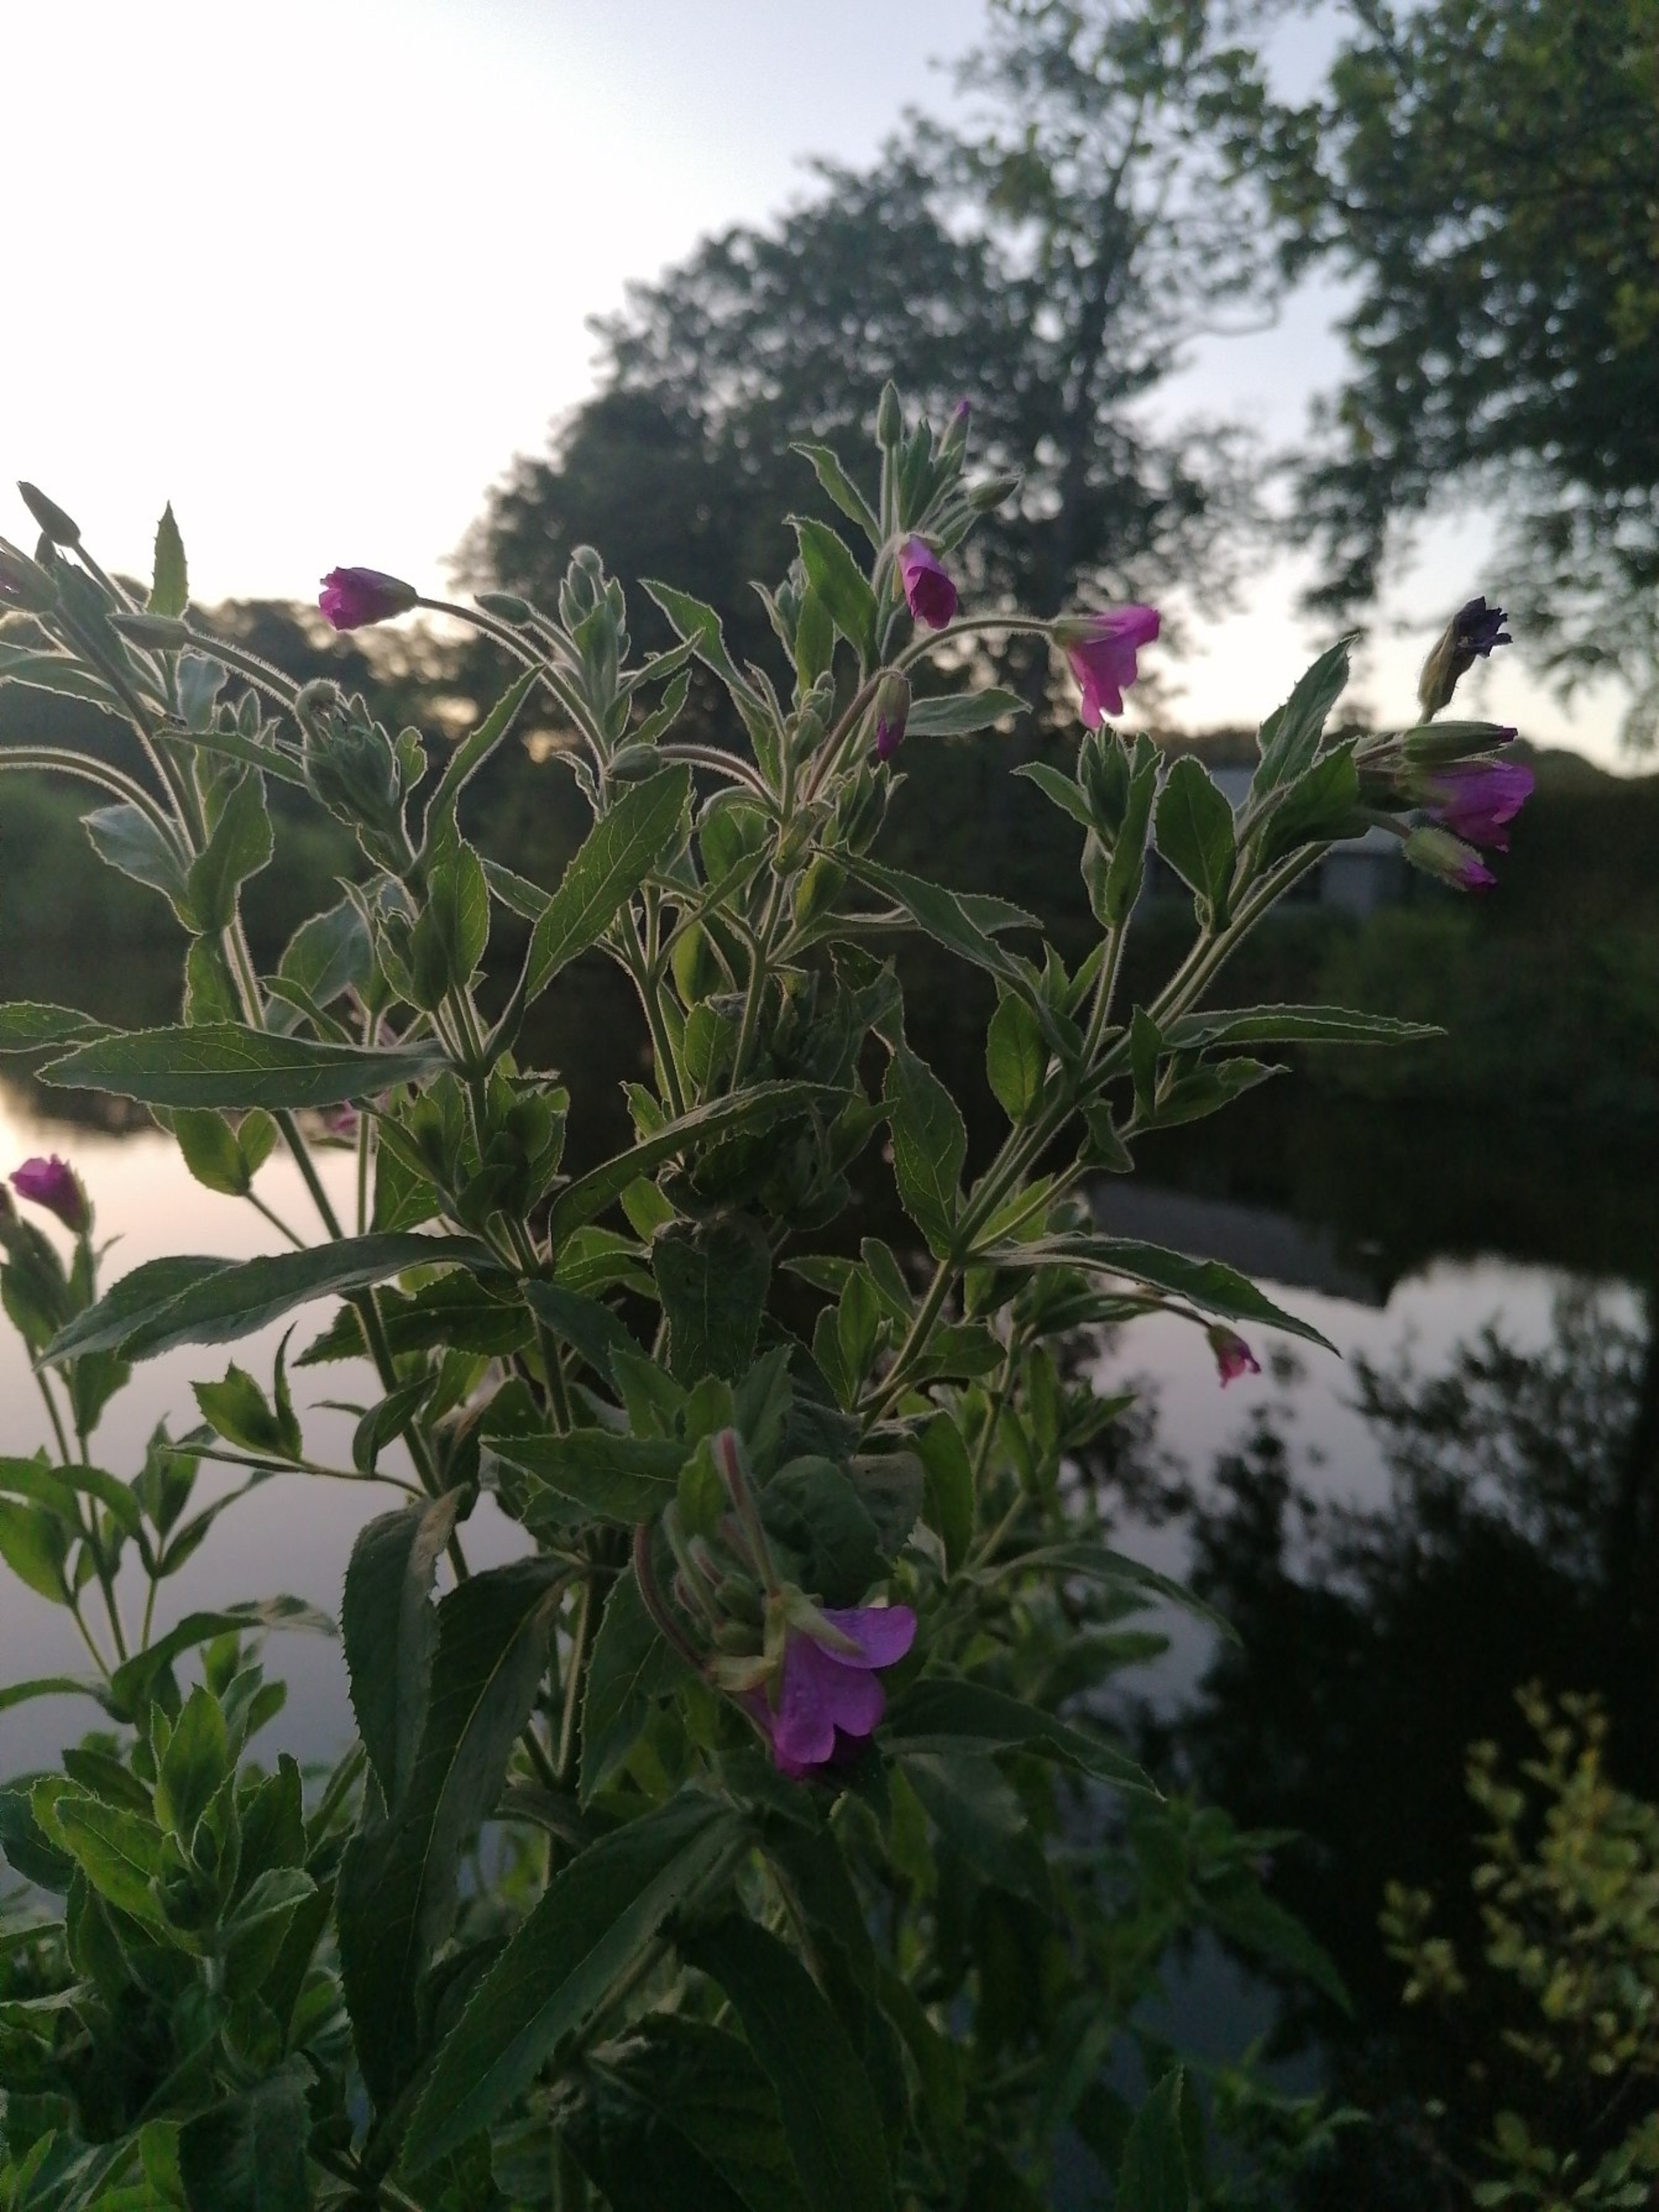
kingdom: Plantae
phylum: Tracheophyta
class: Magnoliopsida
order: Myrtales
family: Onagraceae
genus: Epilobium
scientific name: Epilobium hirsutum
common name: Lådden dueurt
